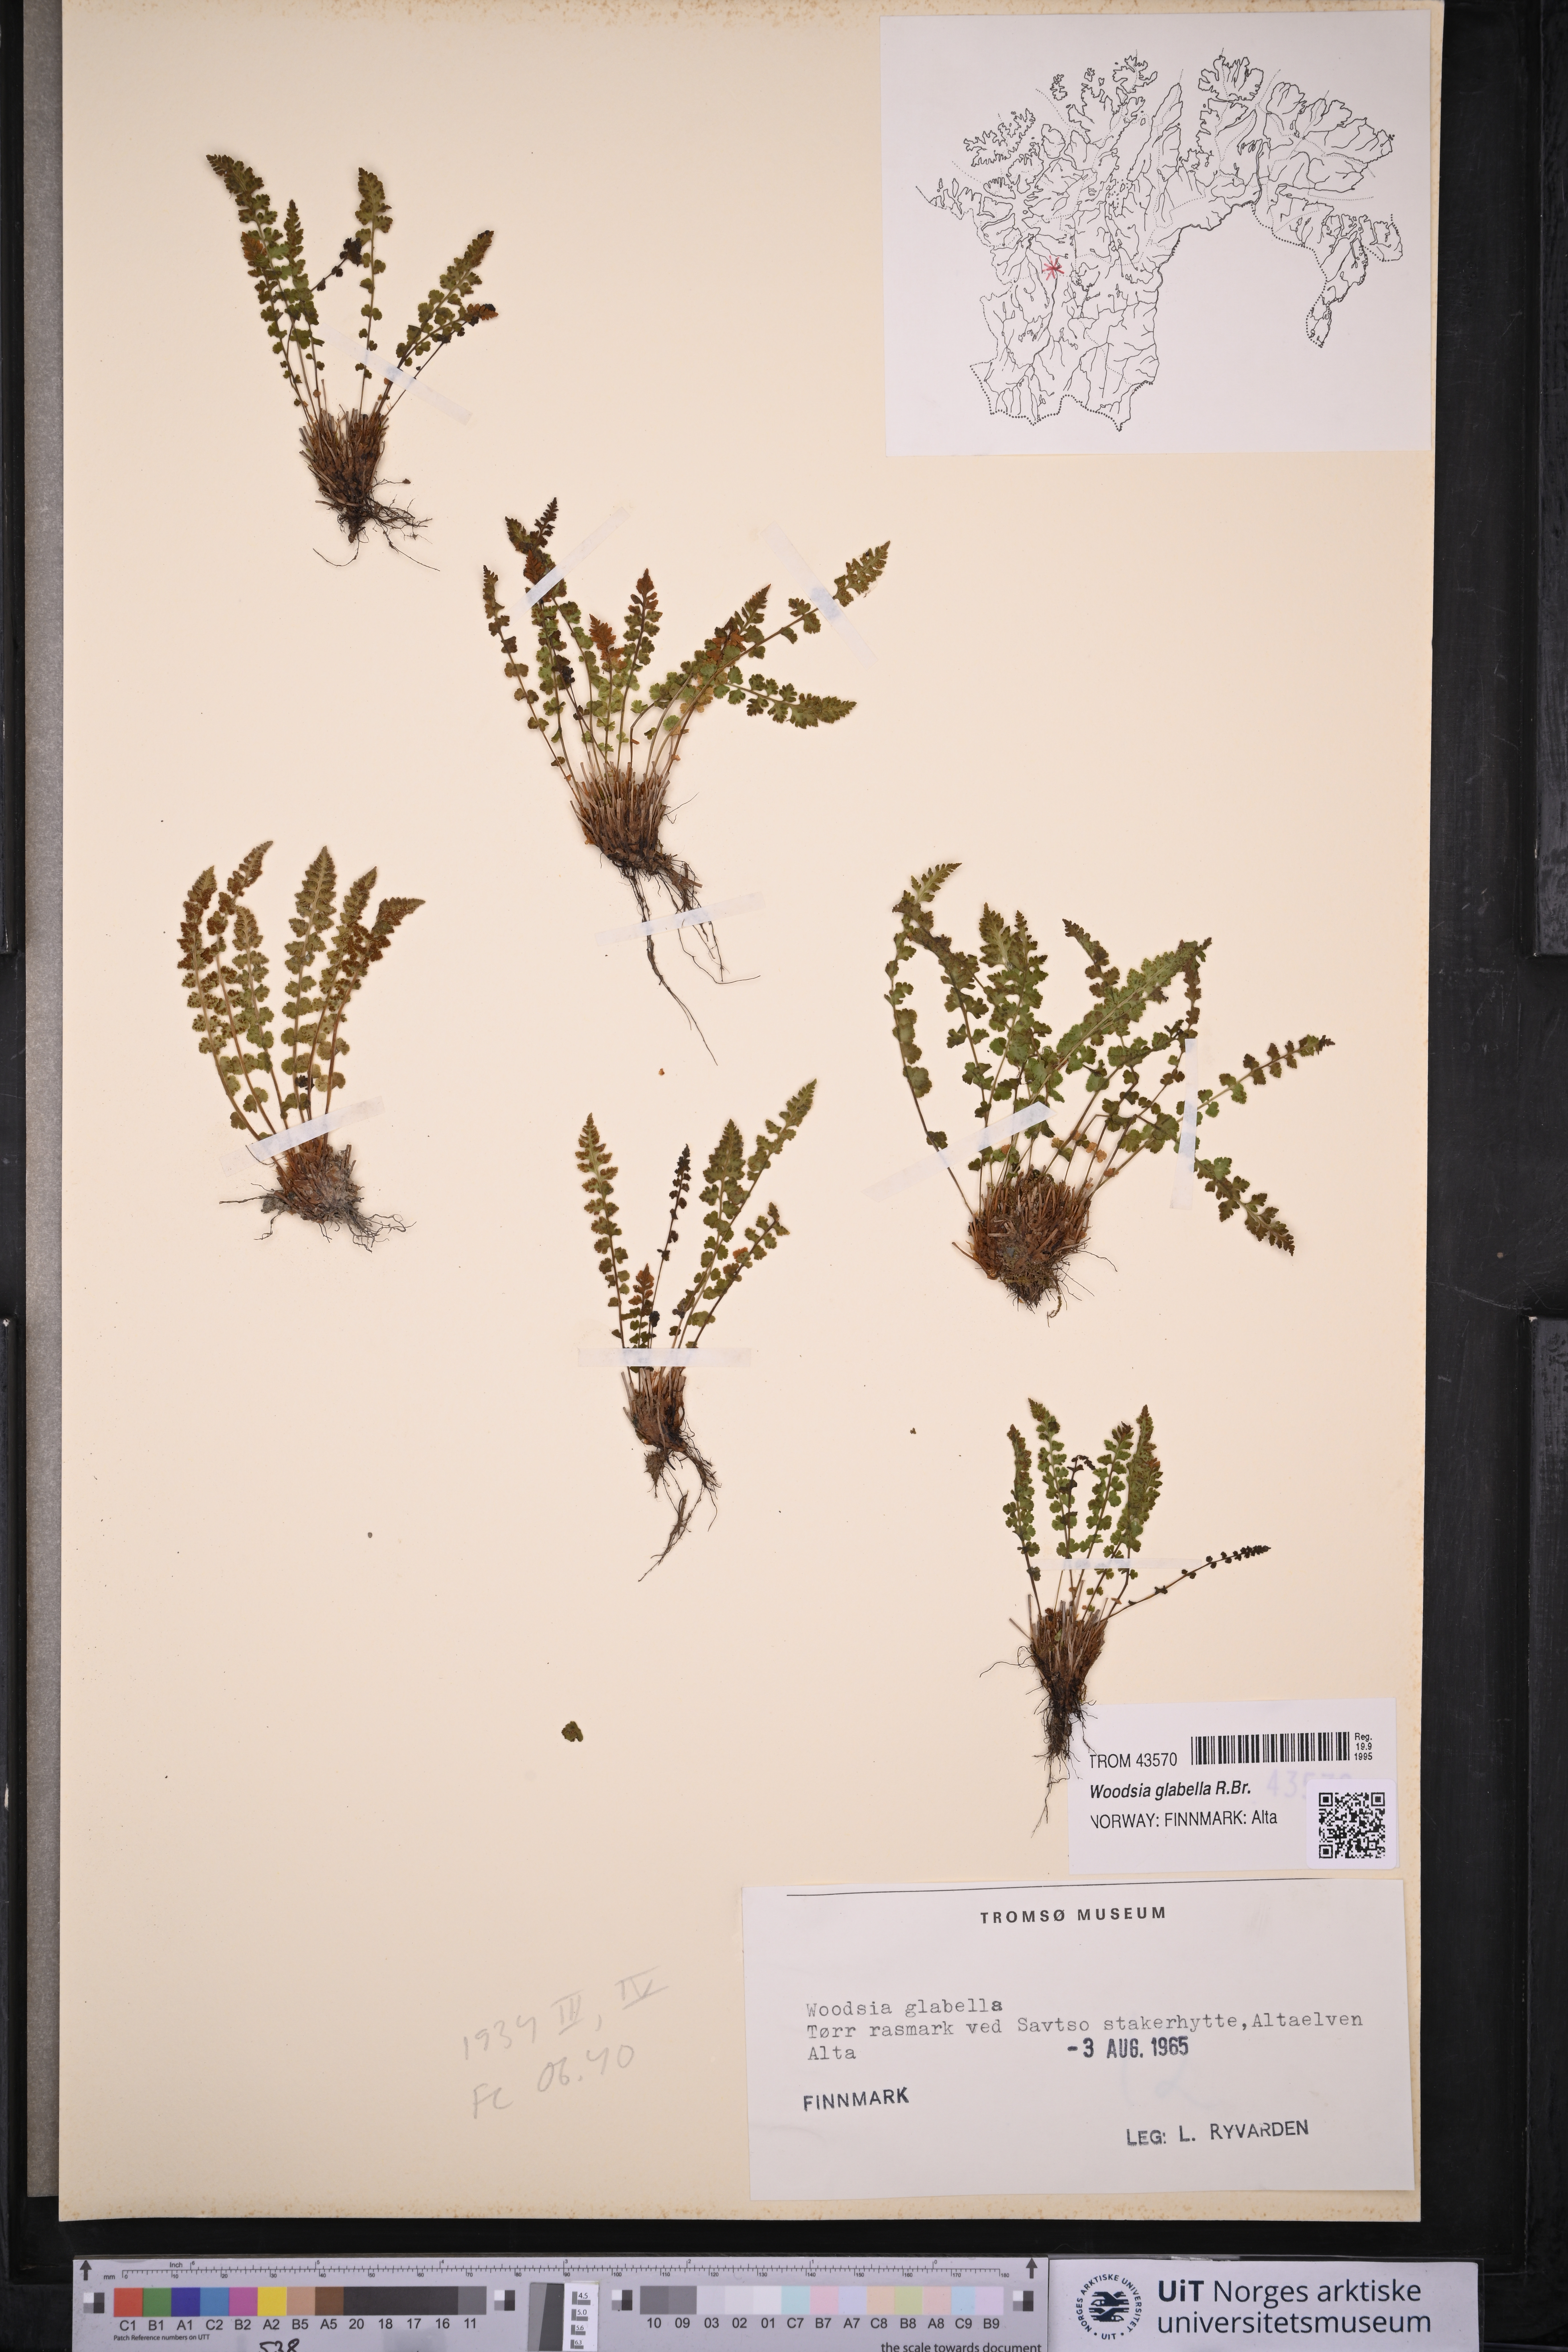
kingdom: Plantae
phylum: Tracheophyta
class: Polypodiopsida
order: Polypodiales
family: Woodsiaceae
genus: Woodsia
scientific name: Woodsia glabella
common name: Smooth woodsia
